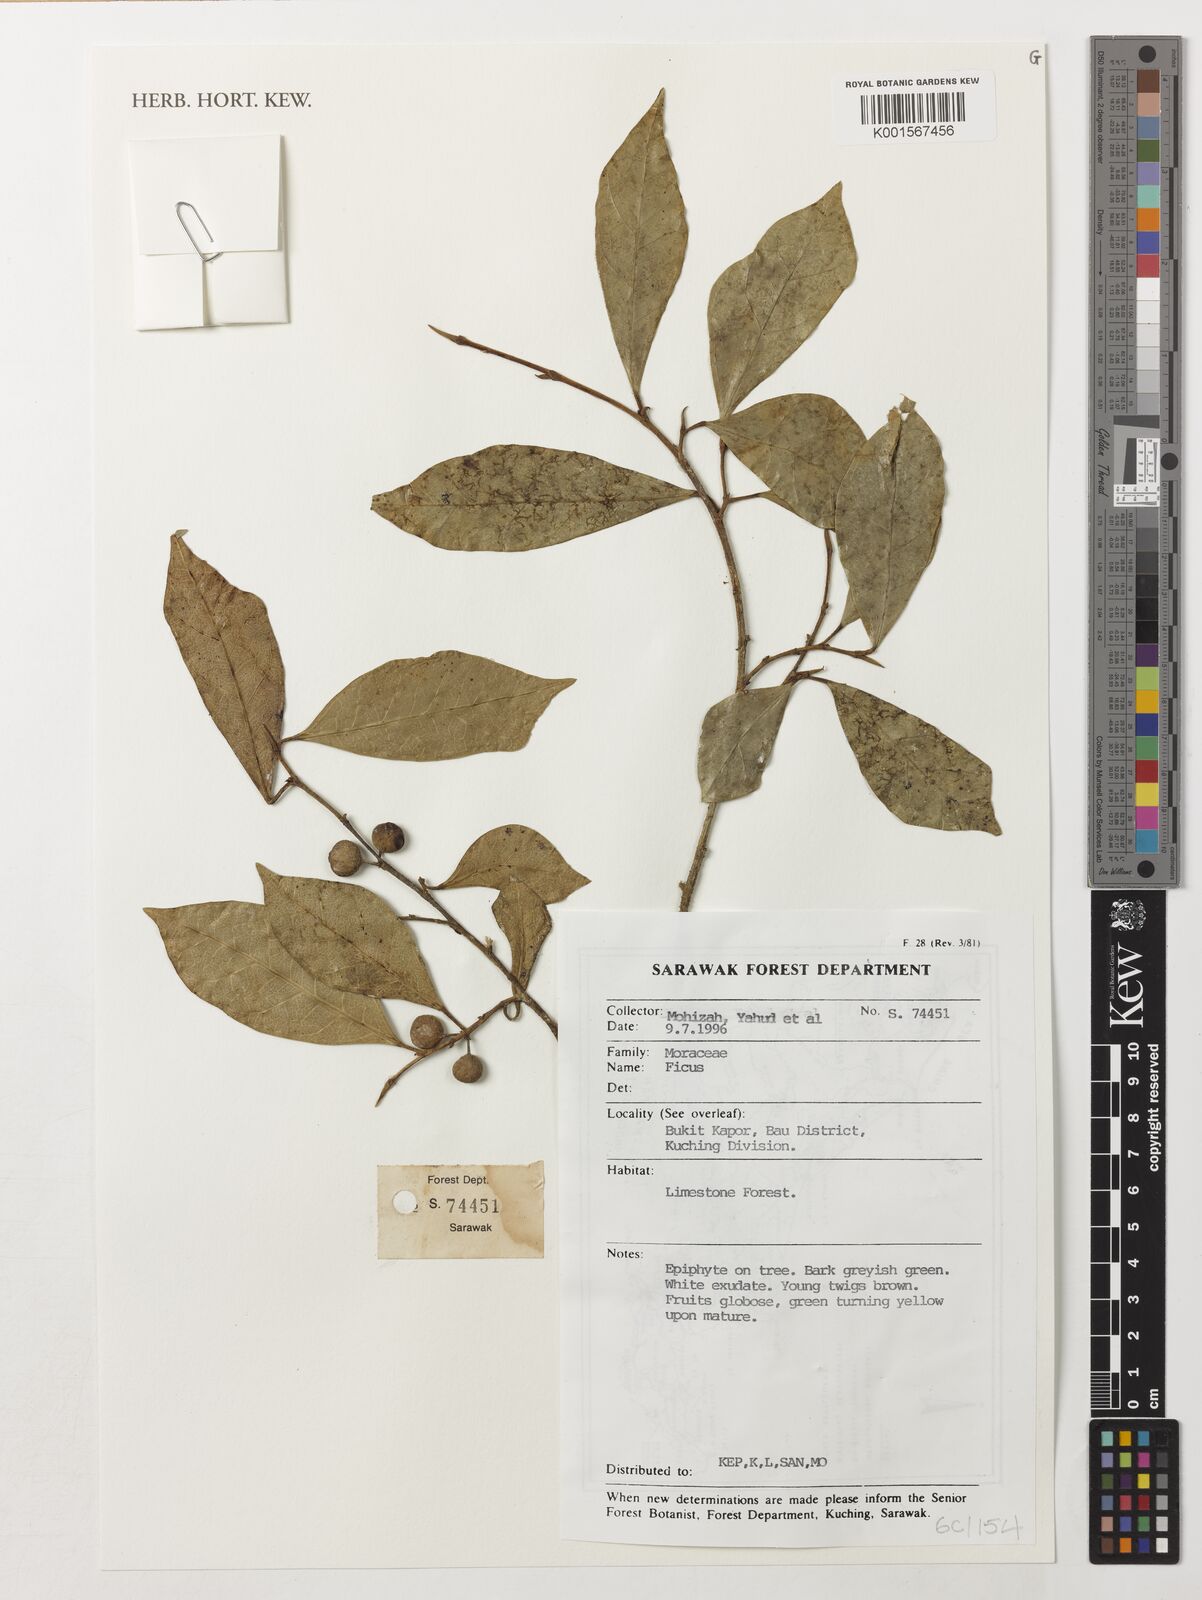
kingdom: Plantae
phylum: Tracheophyta
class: Magnoliopsida
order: Rosales
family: Moraceae
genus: Ficus
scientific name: Ficus
